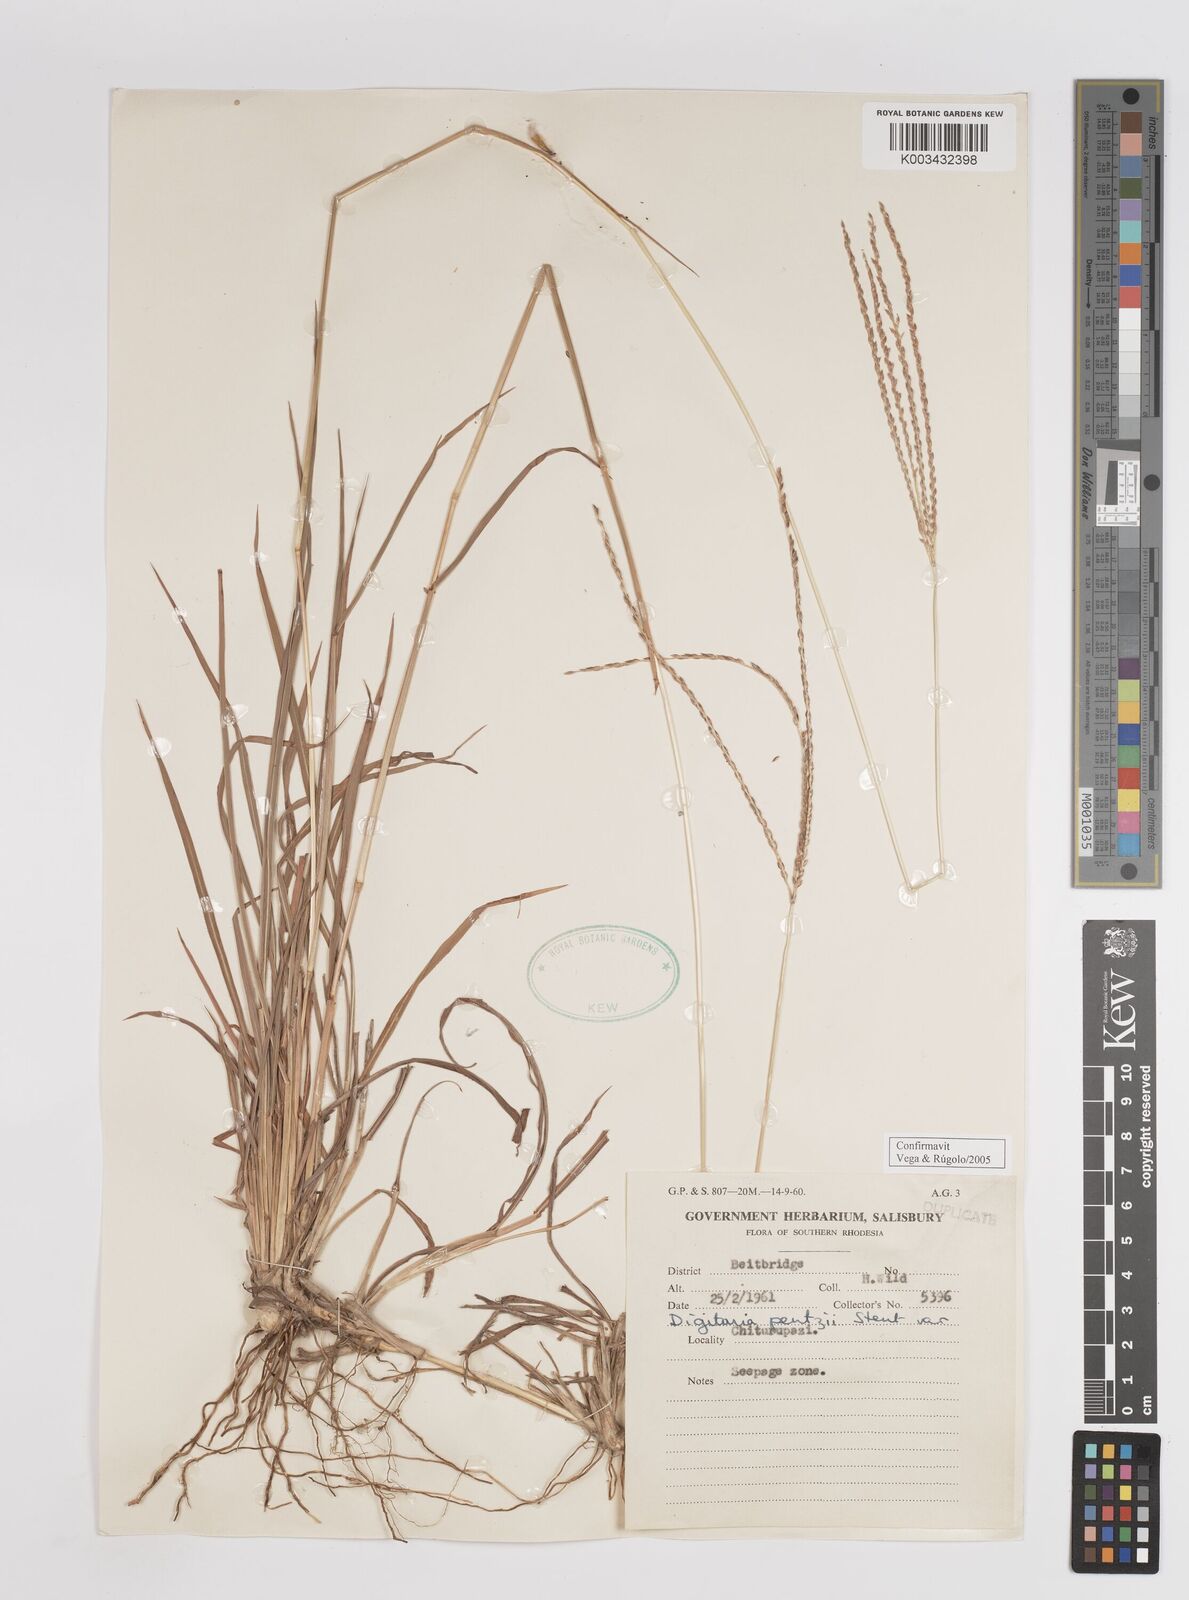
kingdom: Plantae
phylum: Tracheophyta
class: Liliopsida
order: Poales
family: Poaceae
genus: Digitaria
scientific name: Digitaria eriantha
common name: Digitgrass
